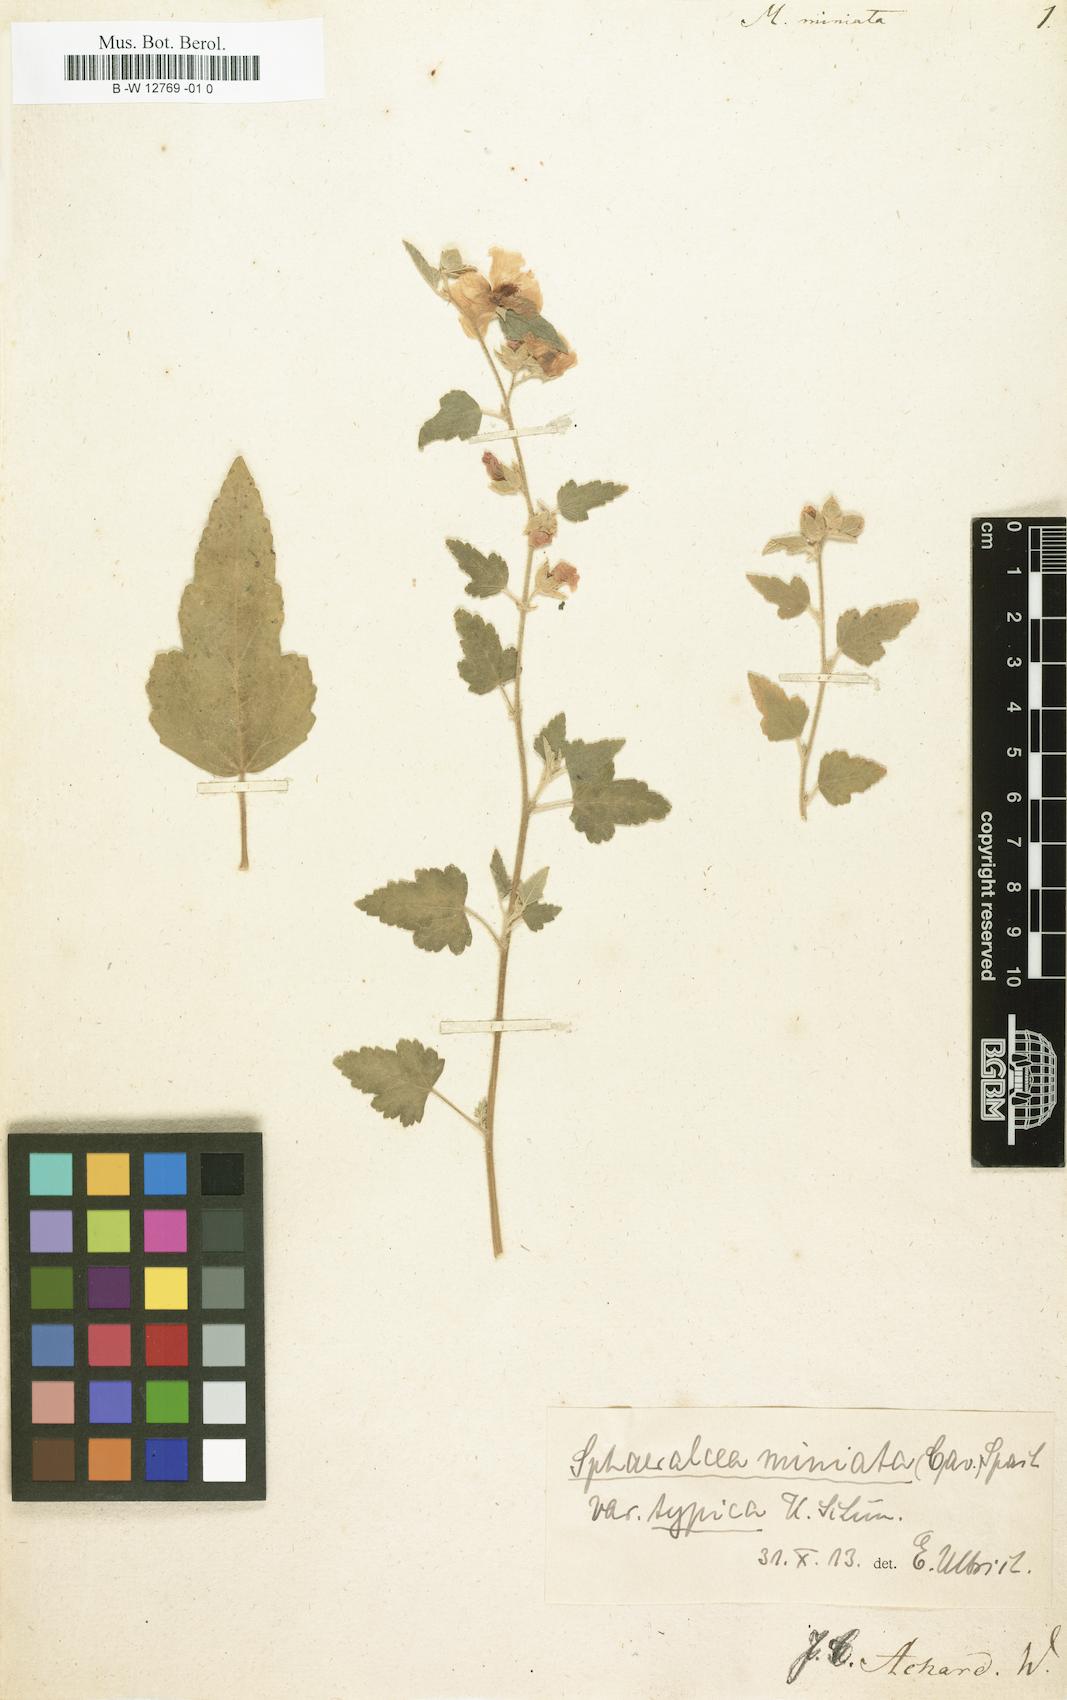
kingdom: Plantae
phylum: Tracheophyta
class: Magnoliopsida
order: Malvales
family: Malvaceae
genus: Sphaeralcea
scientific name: Sphaeralcea miniata
